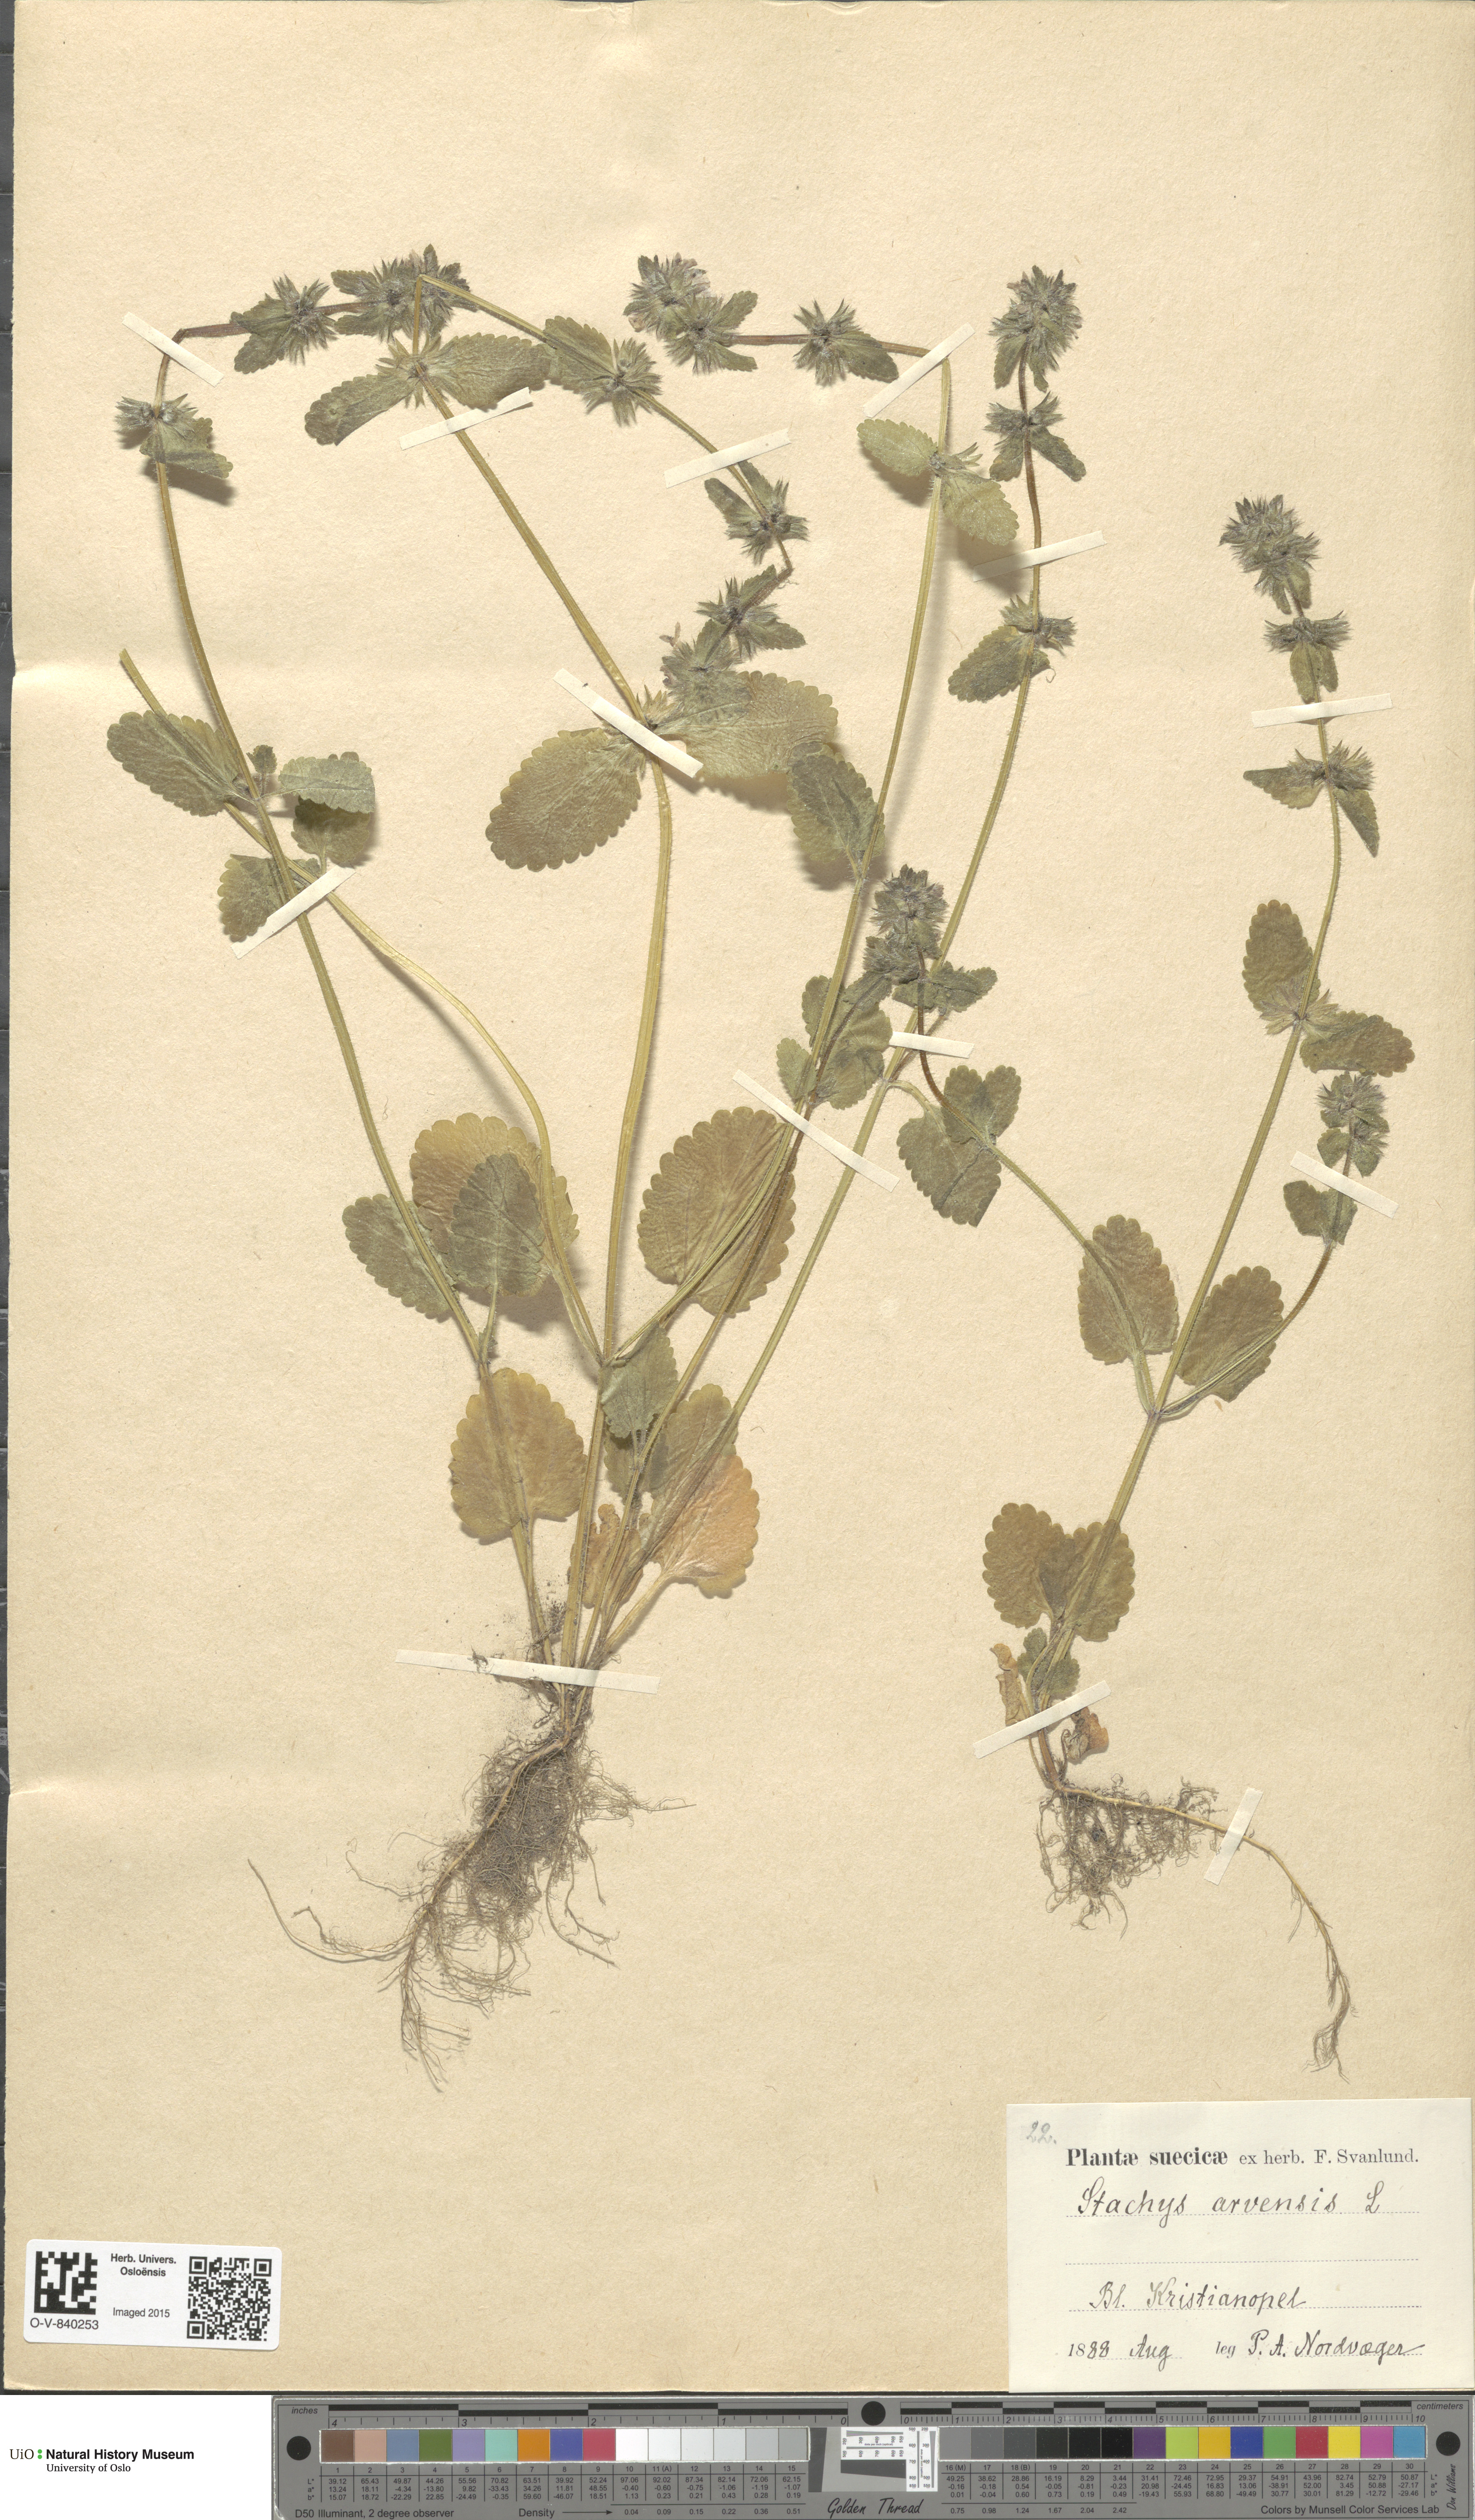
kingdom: Plantae
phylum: Tracheophyta
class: Magnoliopsida
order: Lamiales
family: Lamiaceae
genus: Stachys
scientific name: Stachys arvensis
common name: Field woundwort
